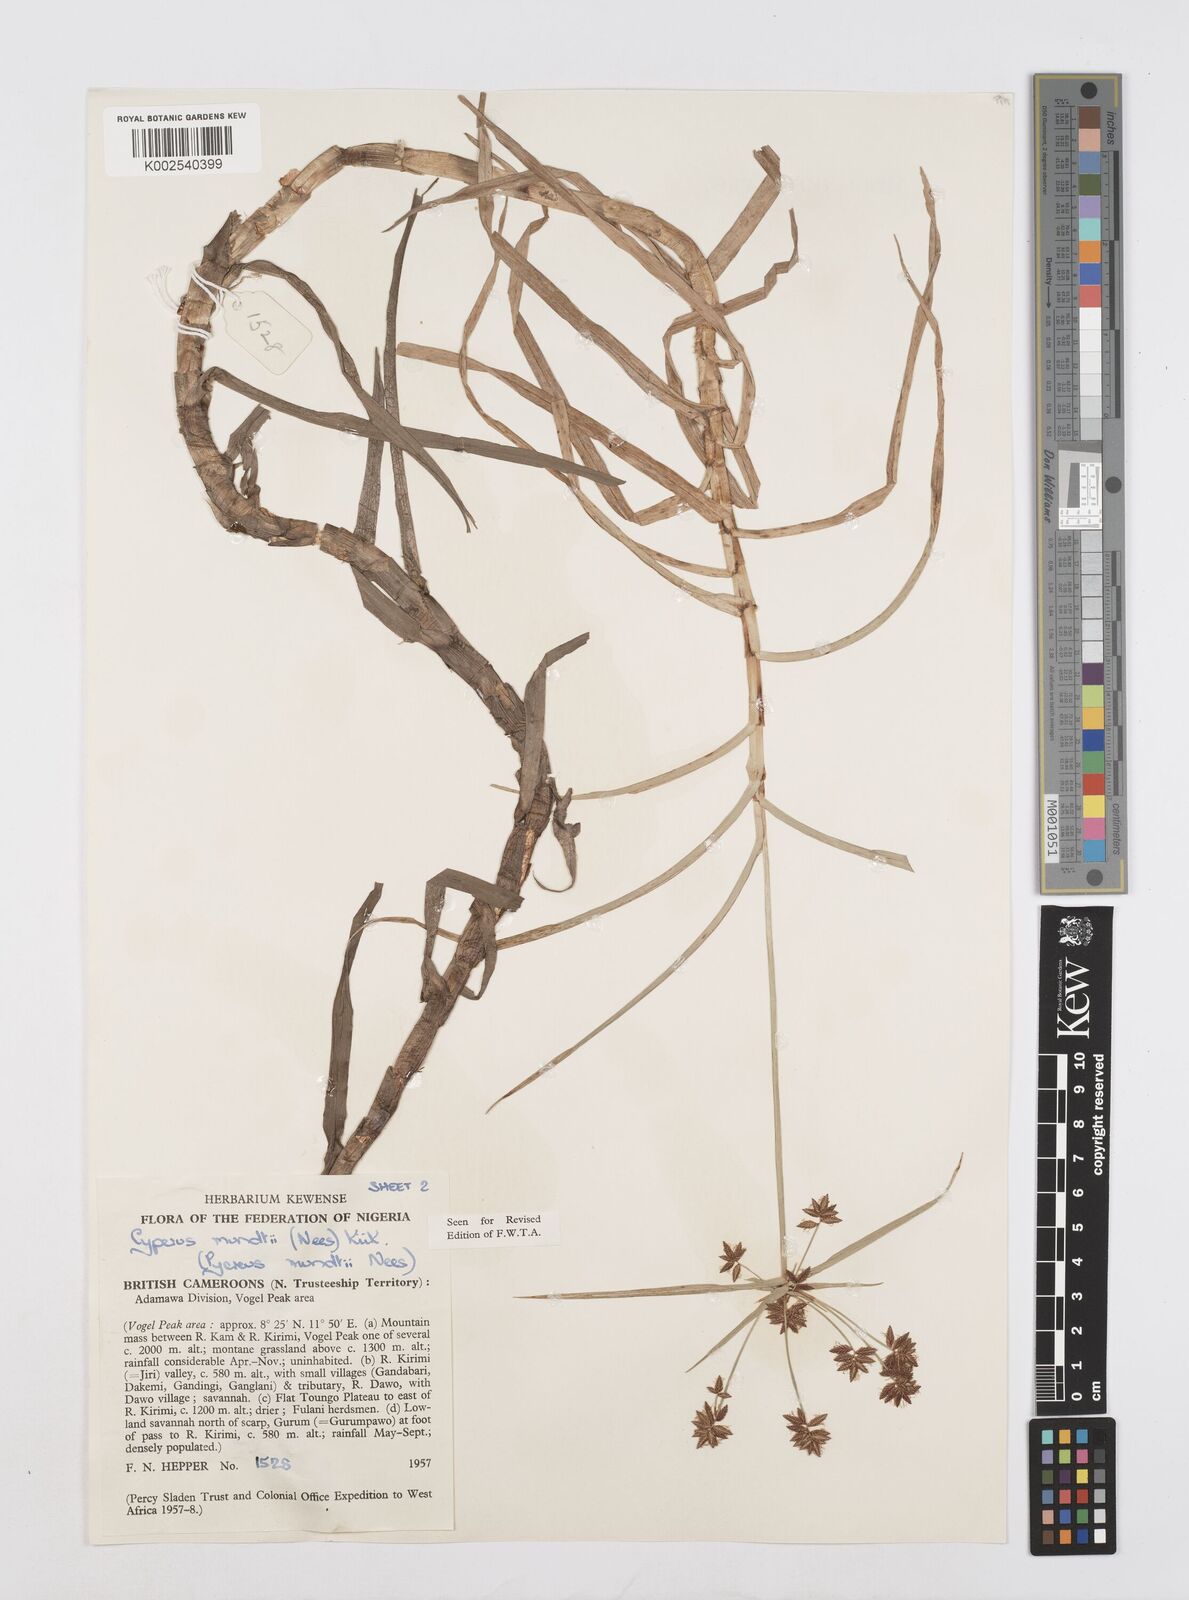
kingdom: Plantae
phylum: Tracheophyta
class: Liliopsida
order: Poales
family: Cyperaceae
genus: Cyperus
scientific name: Cyperus mundii
